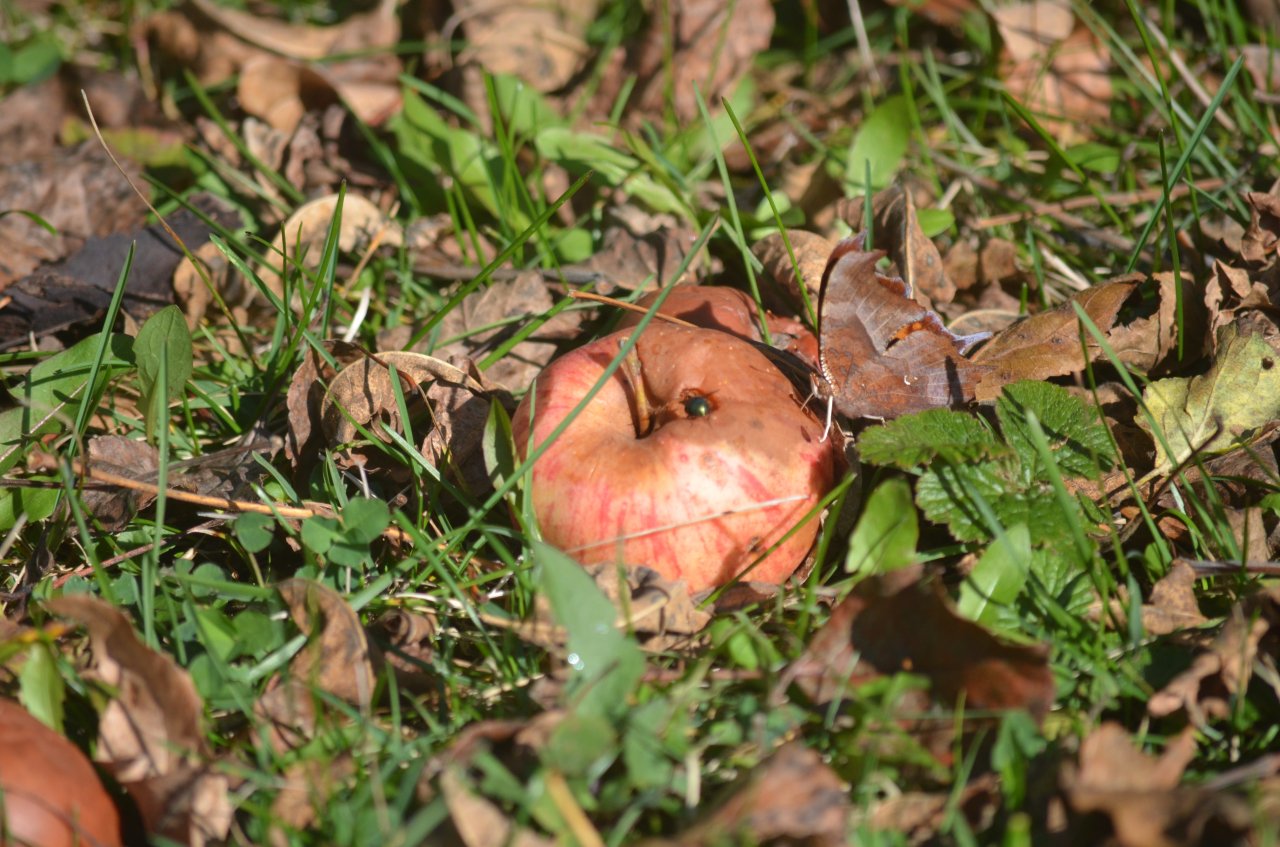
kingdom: Animalia
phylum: Arthropoda
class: Insecta
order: Lepidoptera
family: Nymphalidae
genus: Polygonia
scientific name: Polygonia interrogationis
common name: Question Mark
